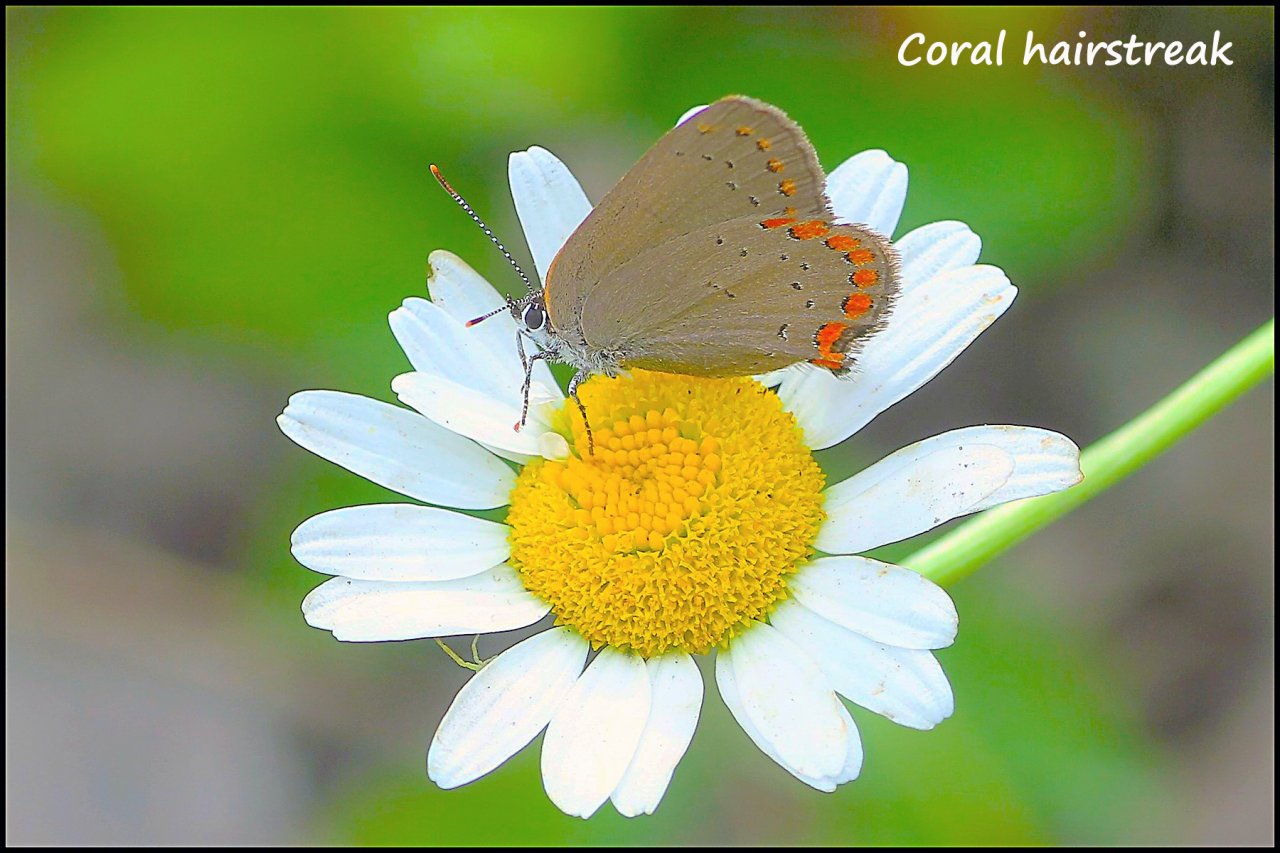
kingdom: Animalia
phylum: Arthropoda
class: Insecta
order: Lepidoptera
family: Lycaenidae
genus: Harkenclenus
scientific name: Harkenclenus titus
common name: Coral Hairstreak
